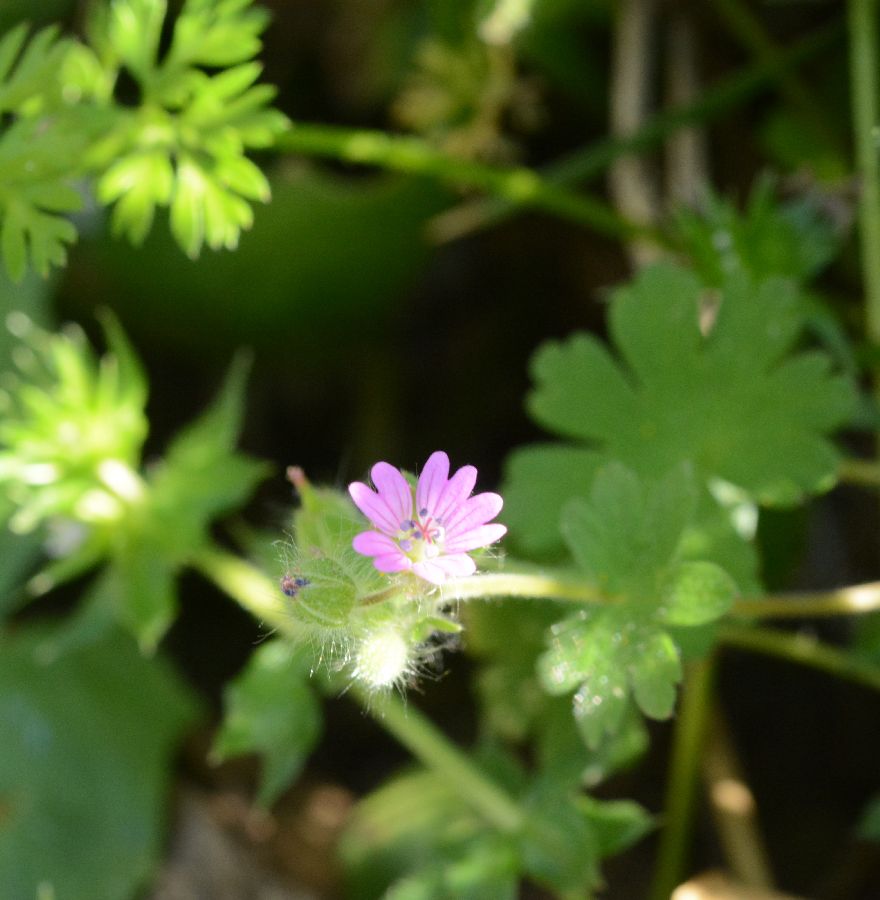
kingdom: Plantae
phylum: Tracheophyta
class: Magnoliopsida
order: Geraniales
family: Geraniaceae
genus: Geranium
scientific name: Geranium molle
